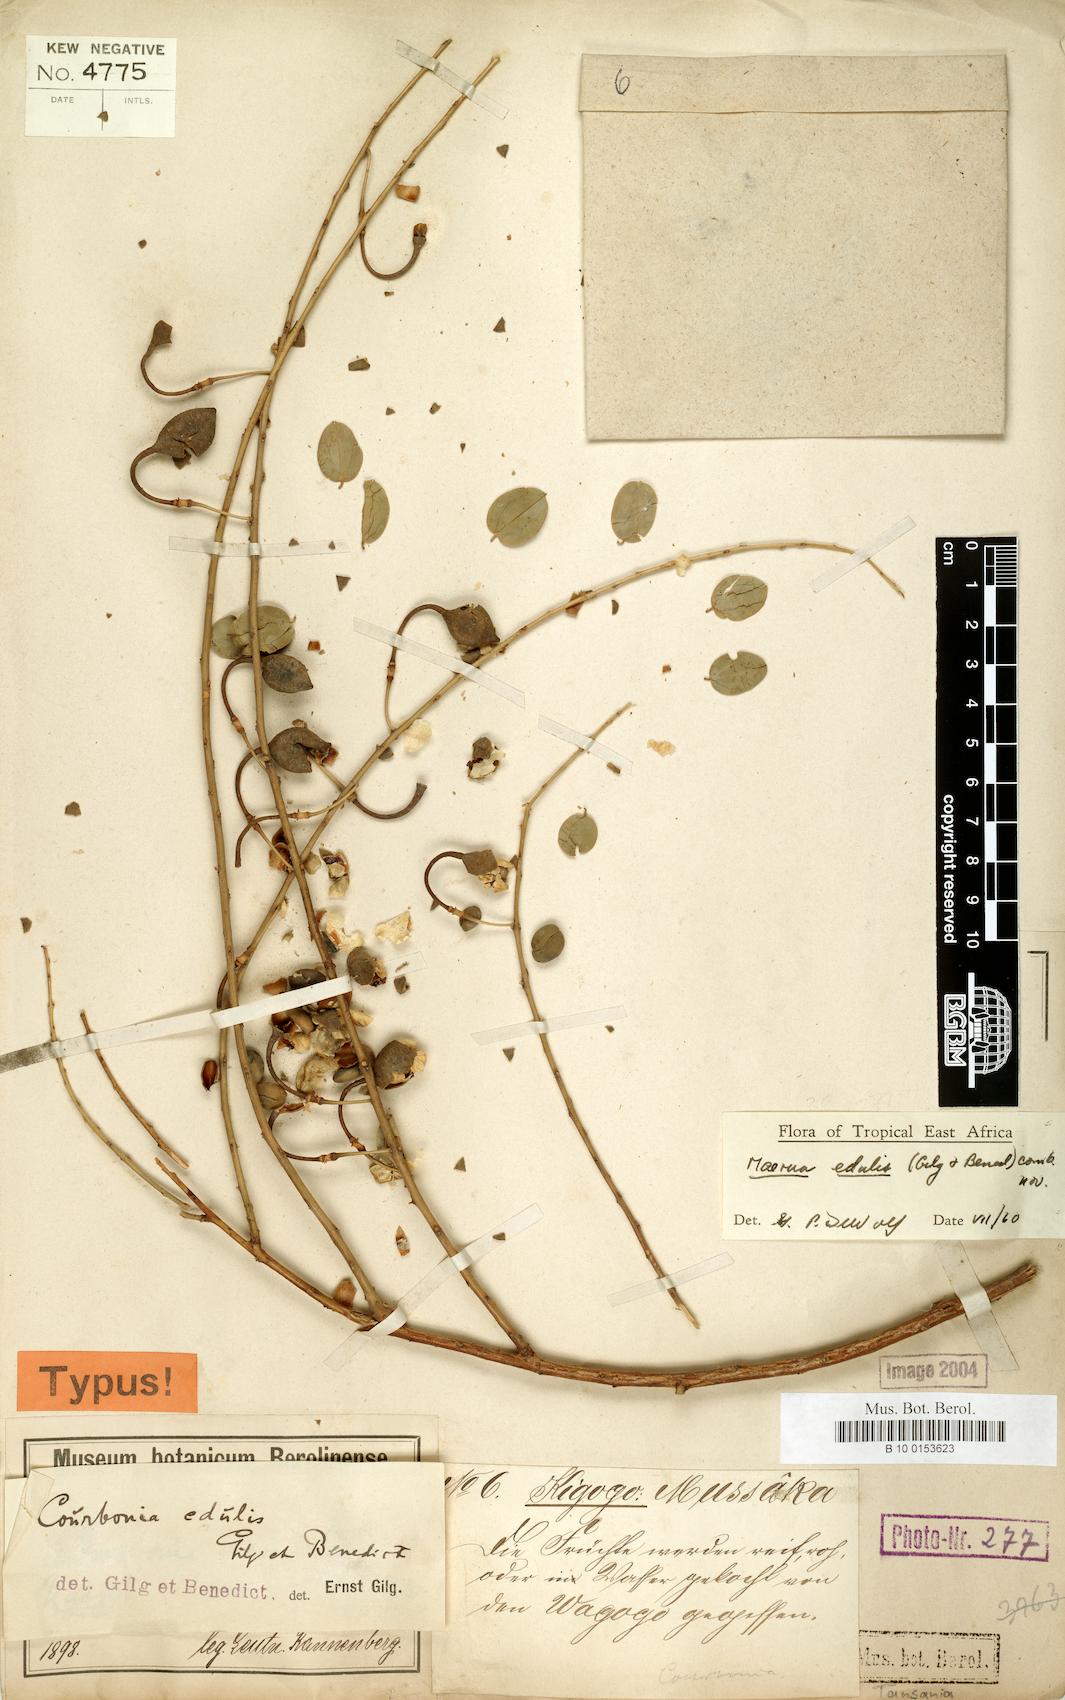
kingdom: Plantae
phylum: Tracheophyta
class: Magnoliopsida
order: Brassicales
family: Capparaceae
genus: Maerua
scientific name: Maerua edulis
